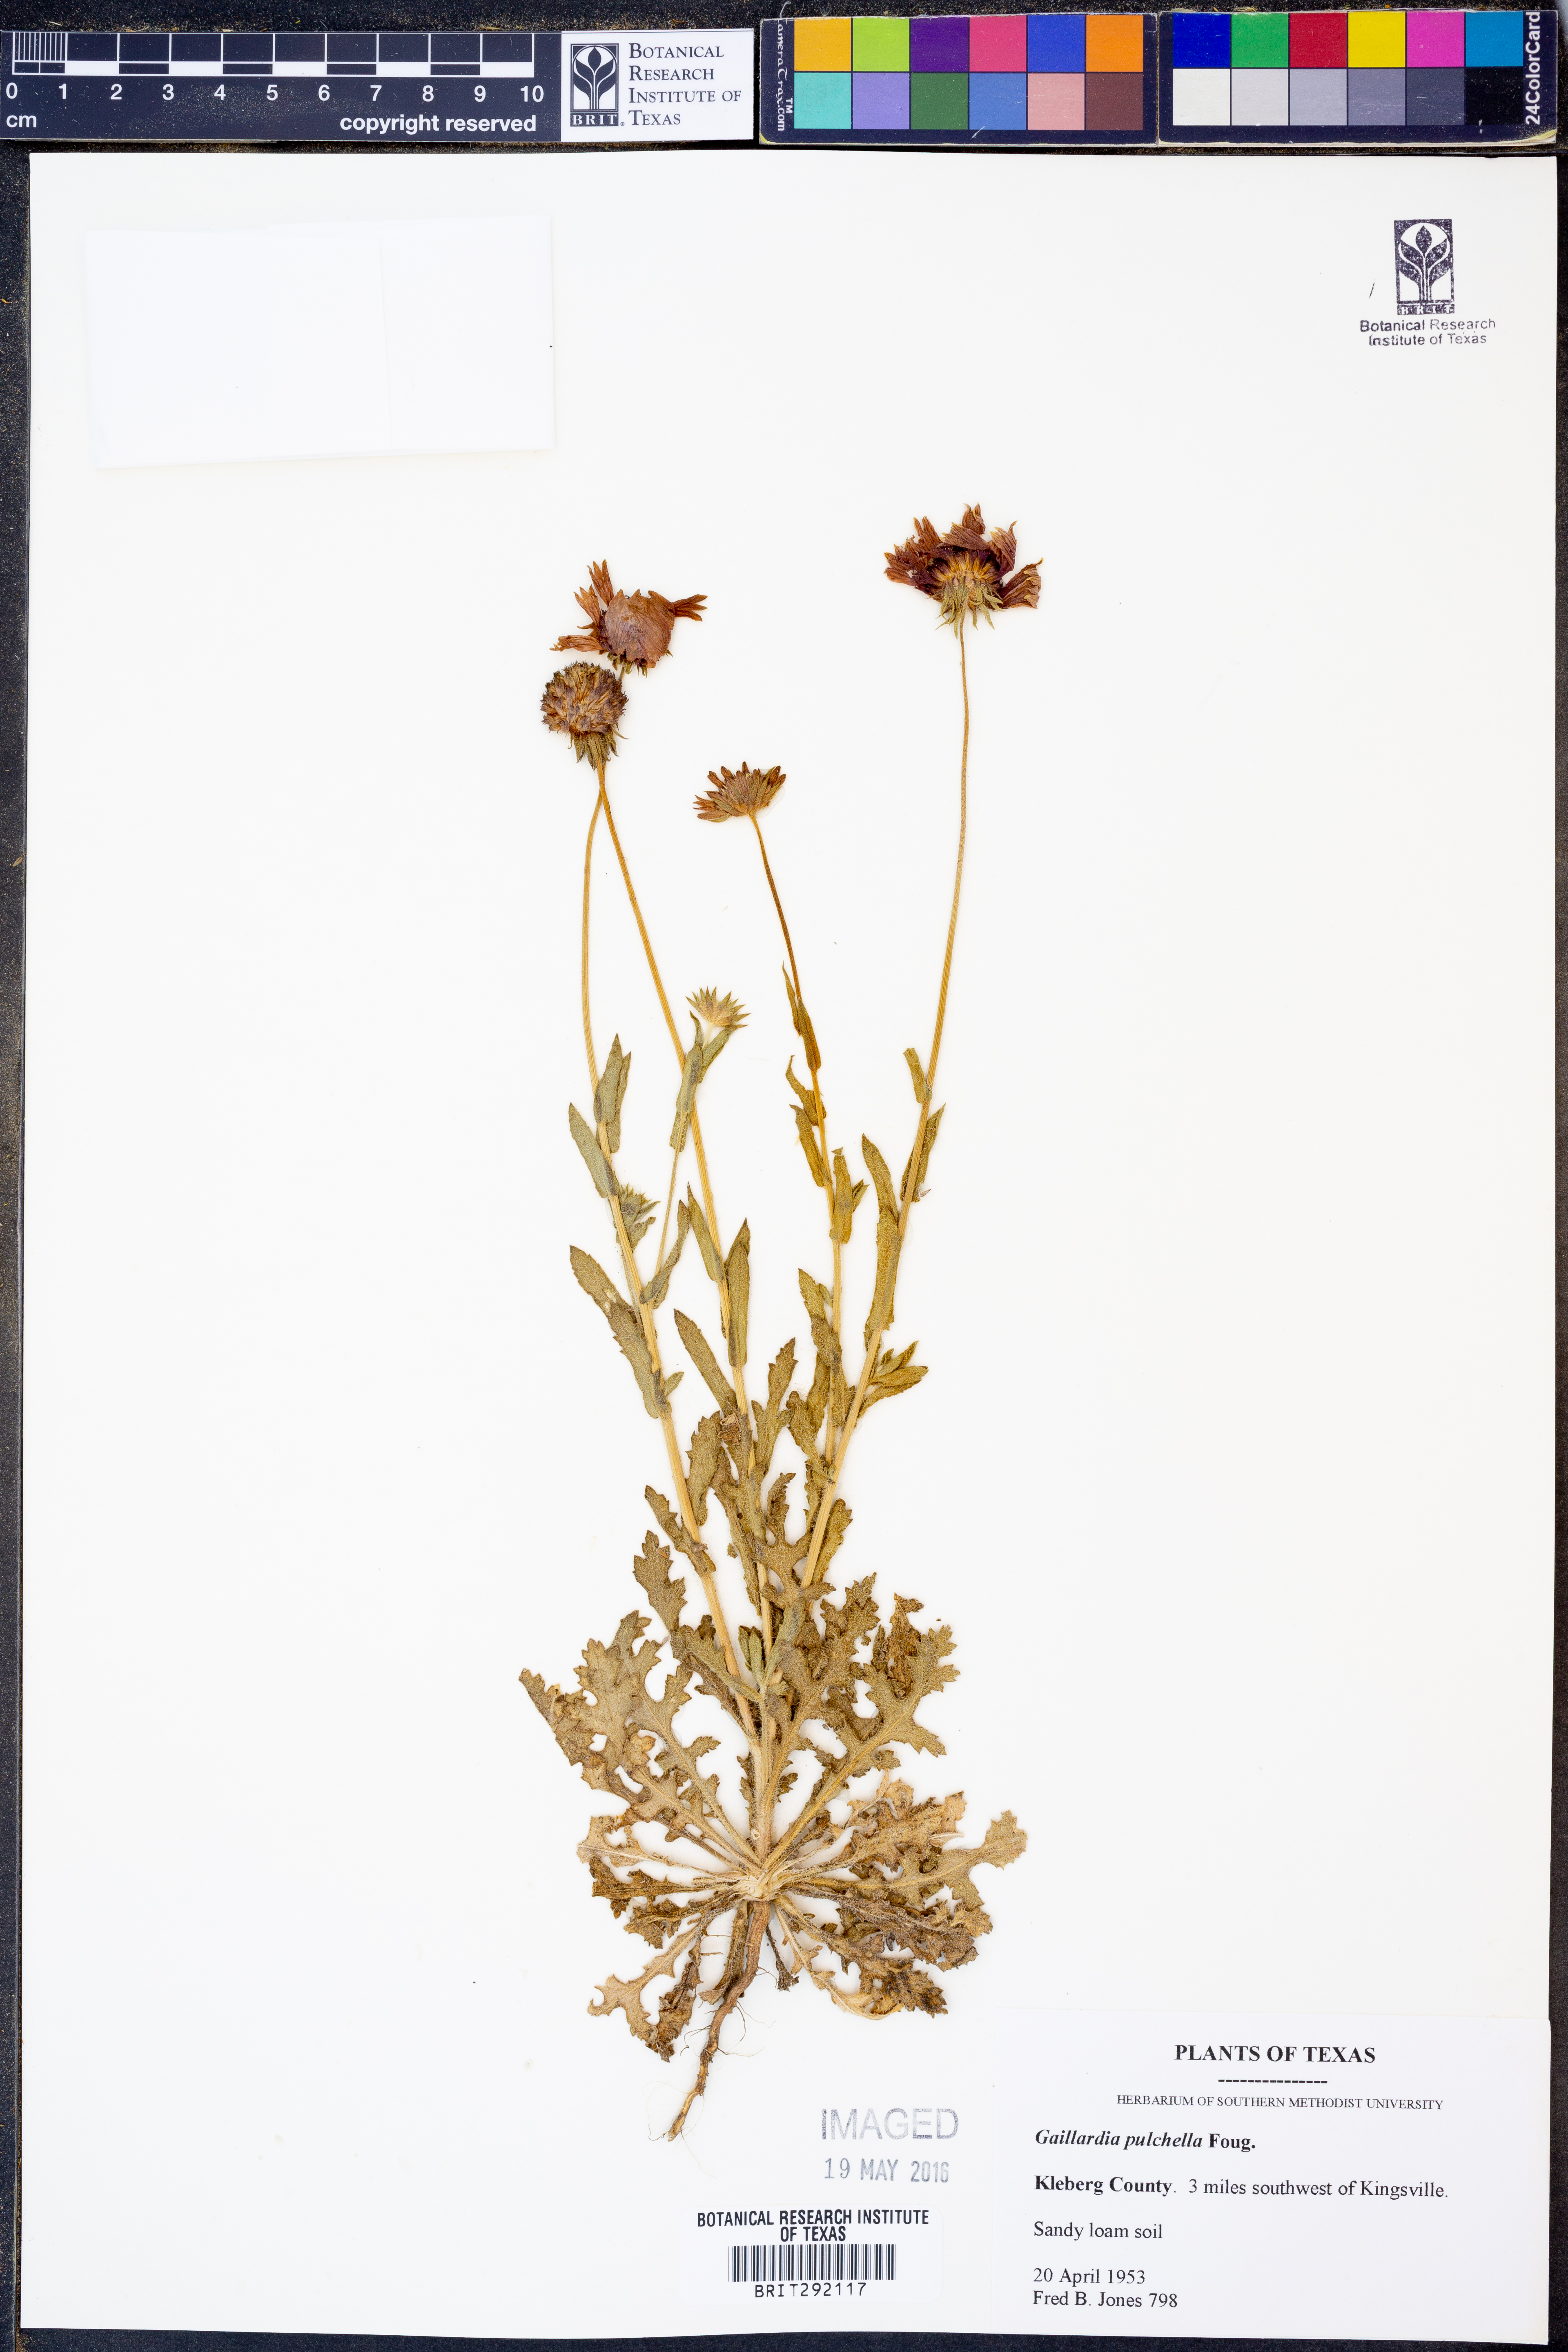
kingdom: Plantae
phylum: Tracheophyta
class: Magnoliopsida
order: Asterales
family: Asteraceae
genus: Gaillardia
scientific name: Gaillardia pulchella
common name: Firewheel
